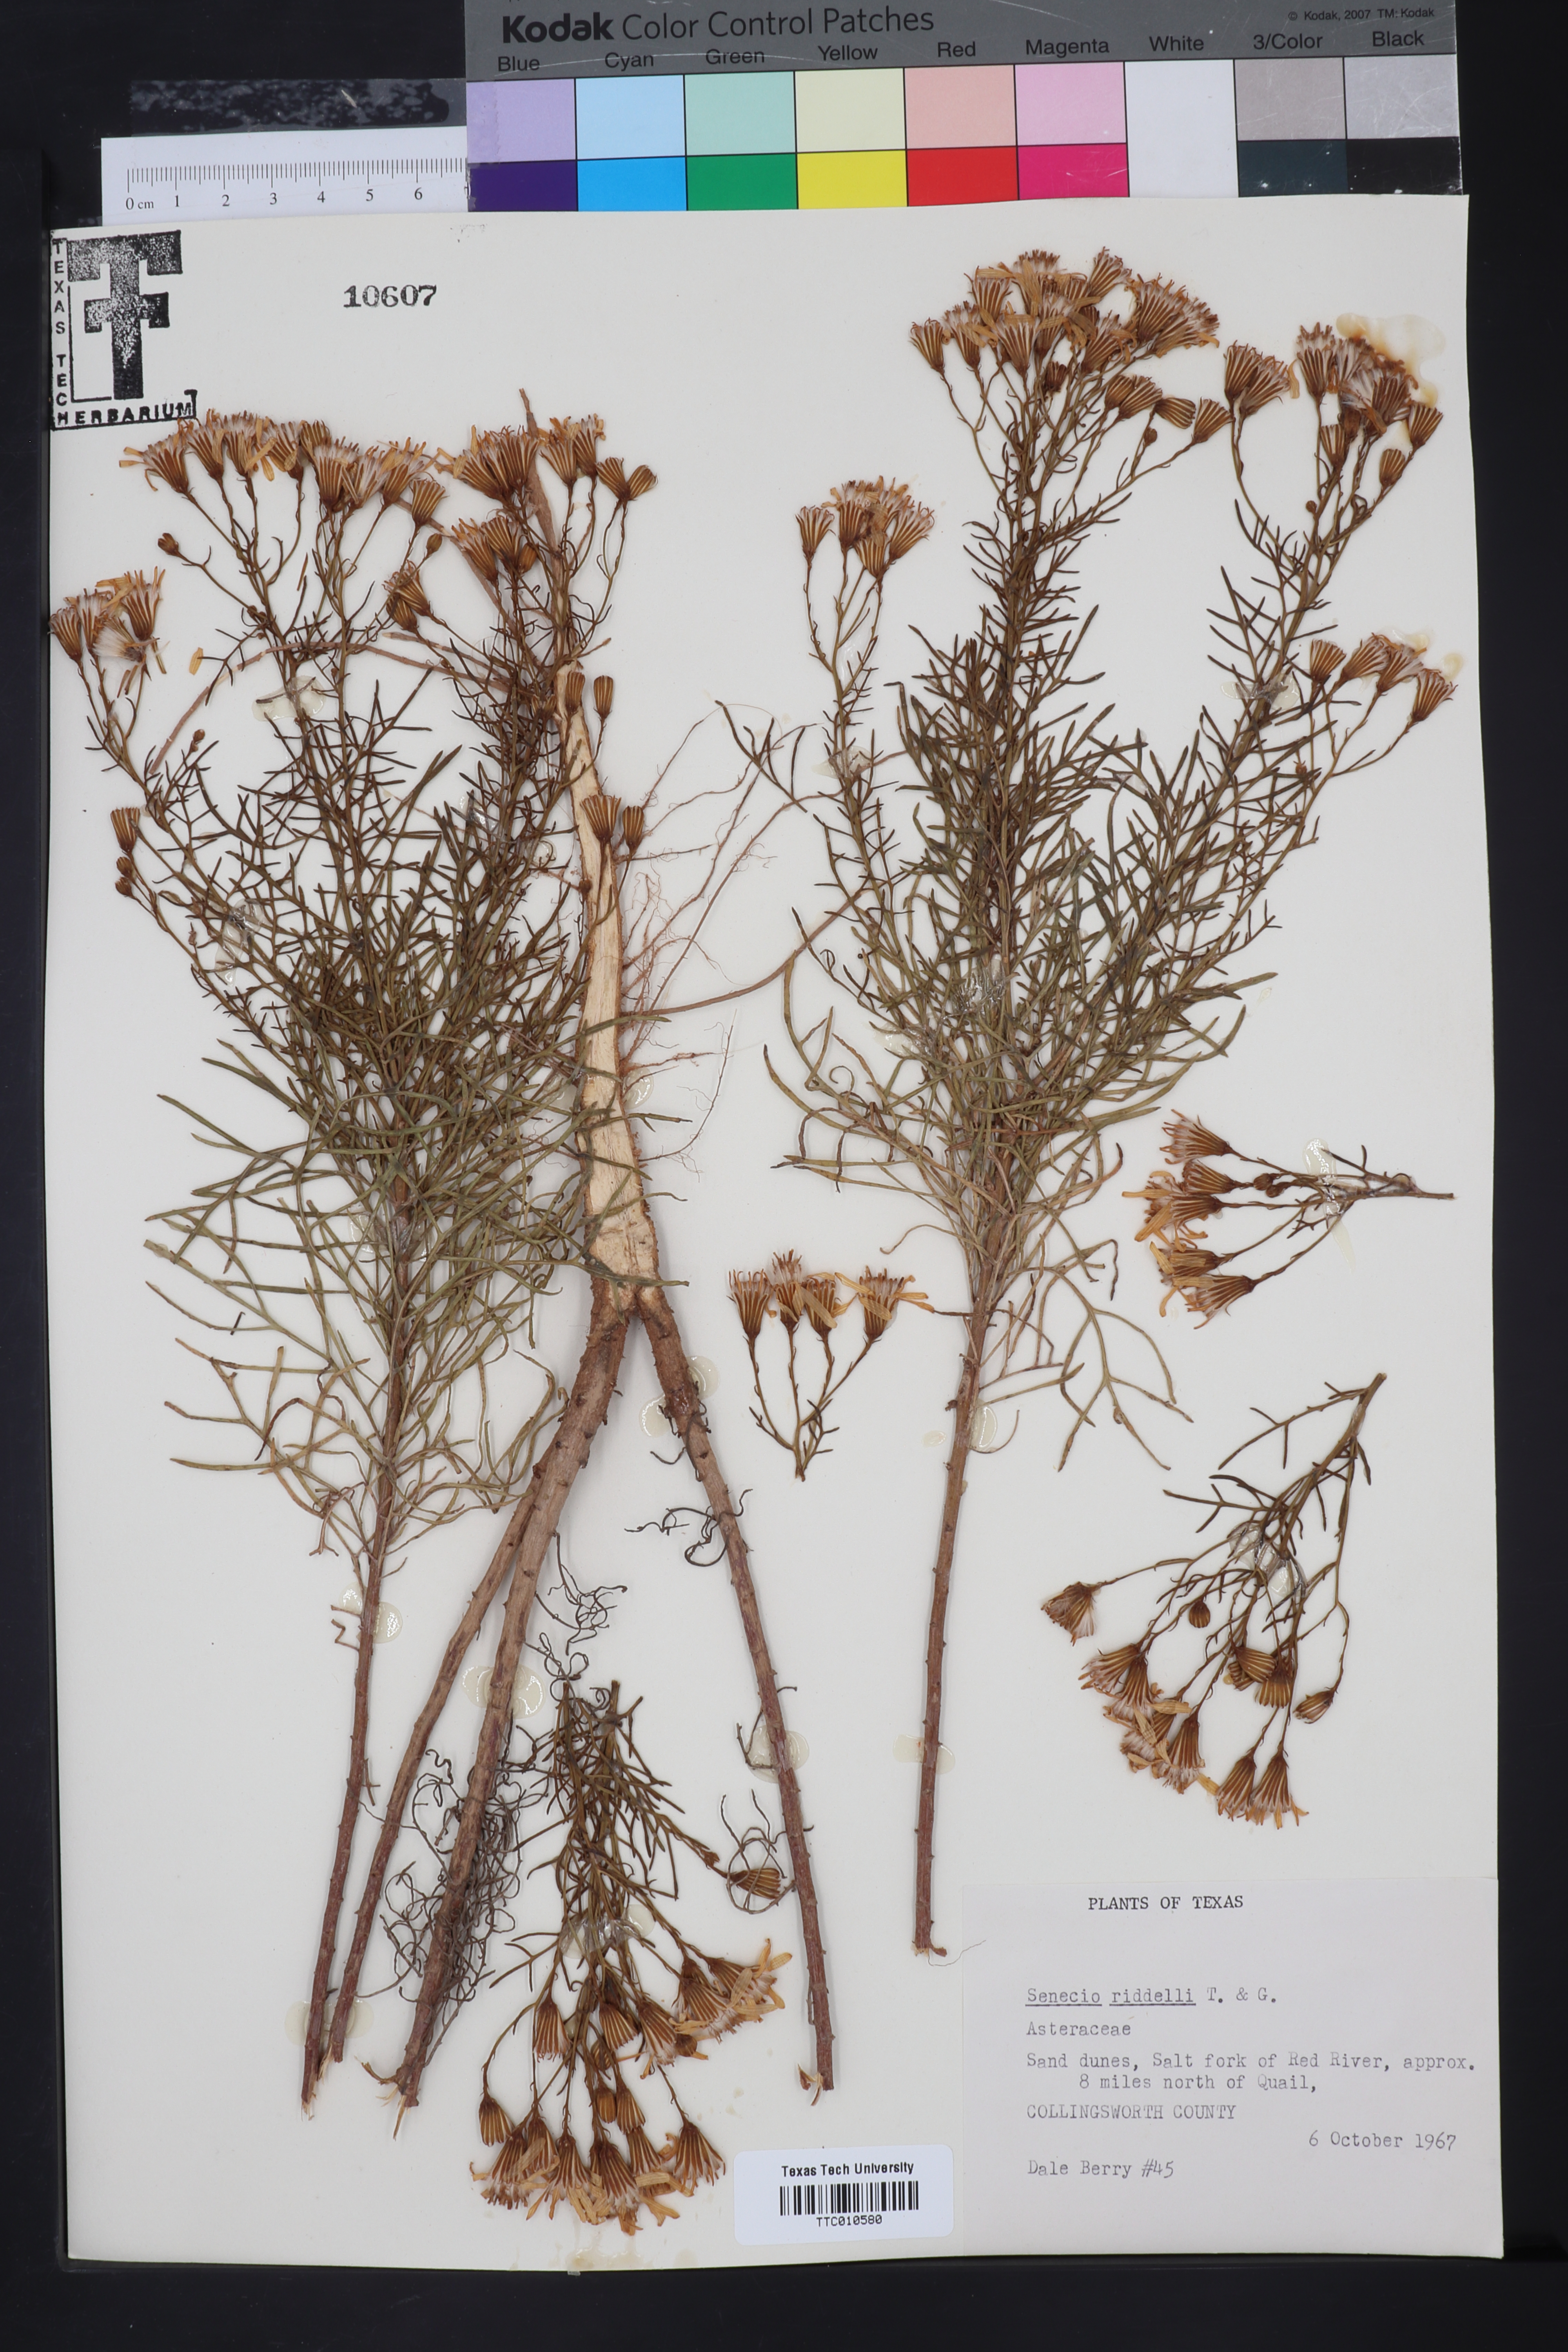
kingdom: Plantae
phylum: Tracheophyta
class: Magnoliopsida
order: Asterales
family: Asteraceae
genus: Senecio
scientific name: Senecio riddellii
